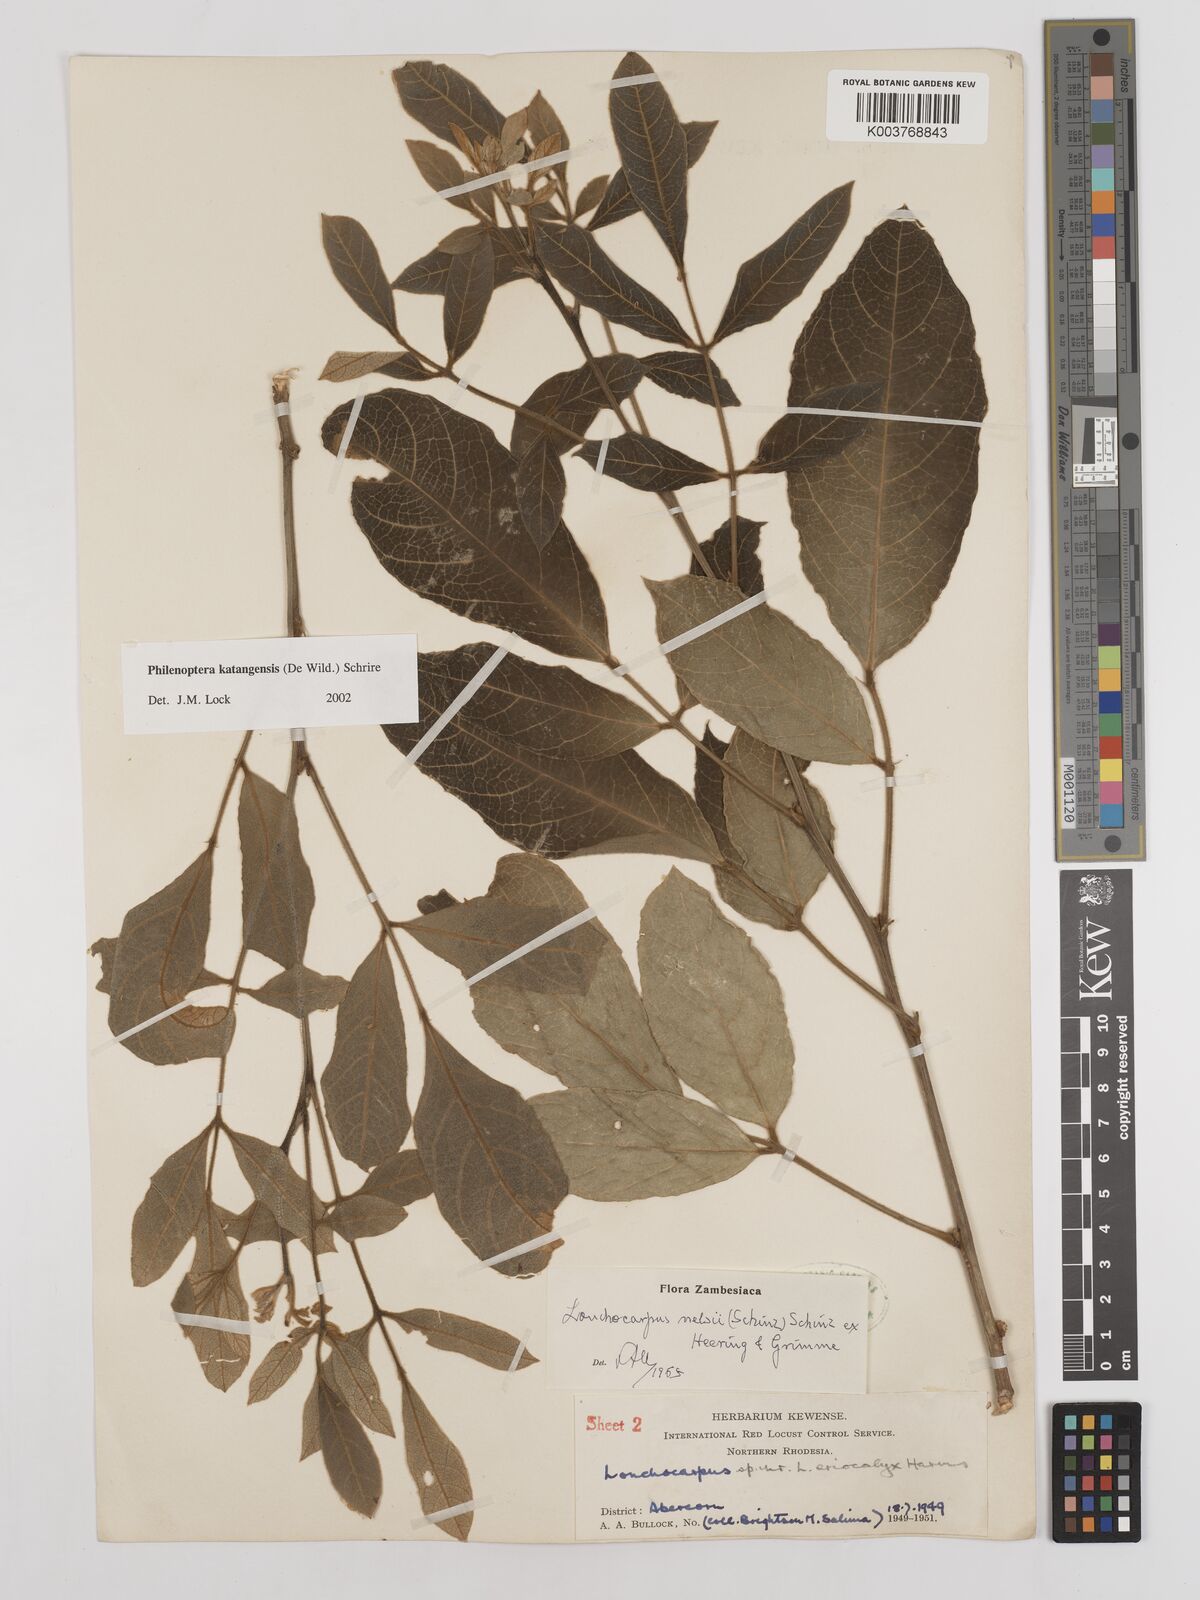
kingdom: Plantae
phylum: Tracheophyta
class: Magnoliopsida
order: Fabales
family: Fabaceae
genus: Philenoptera
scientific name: Philenoptera katangensis
